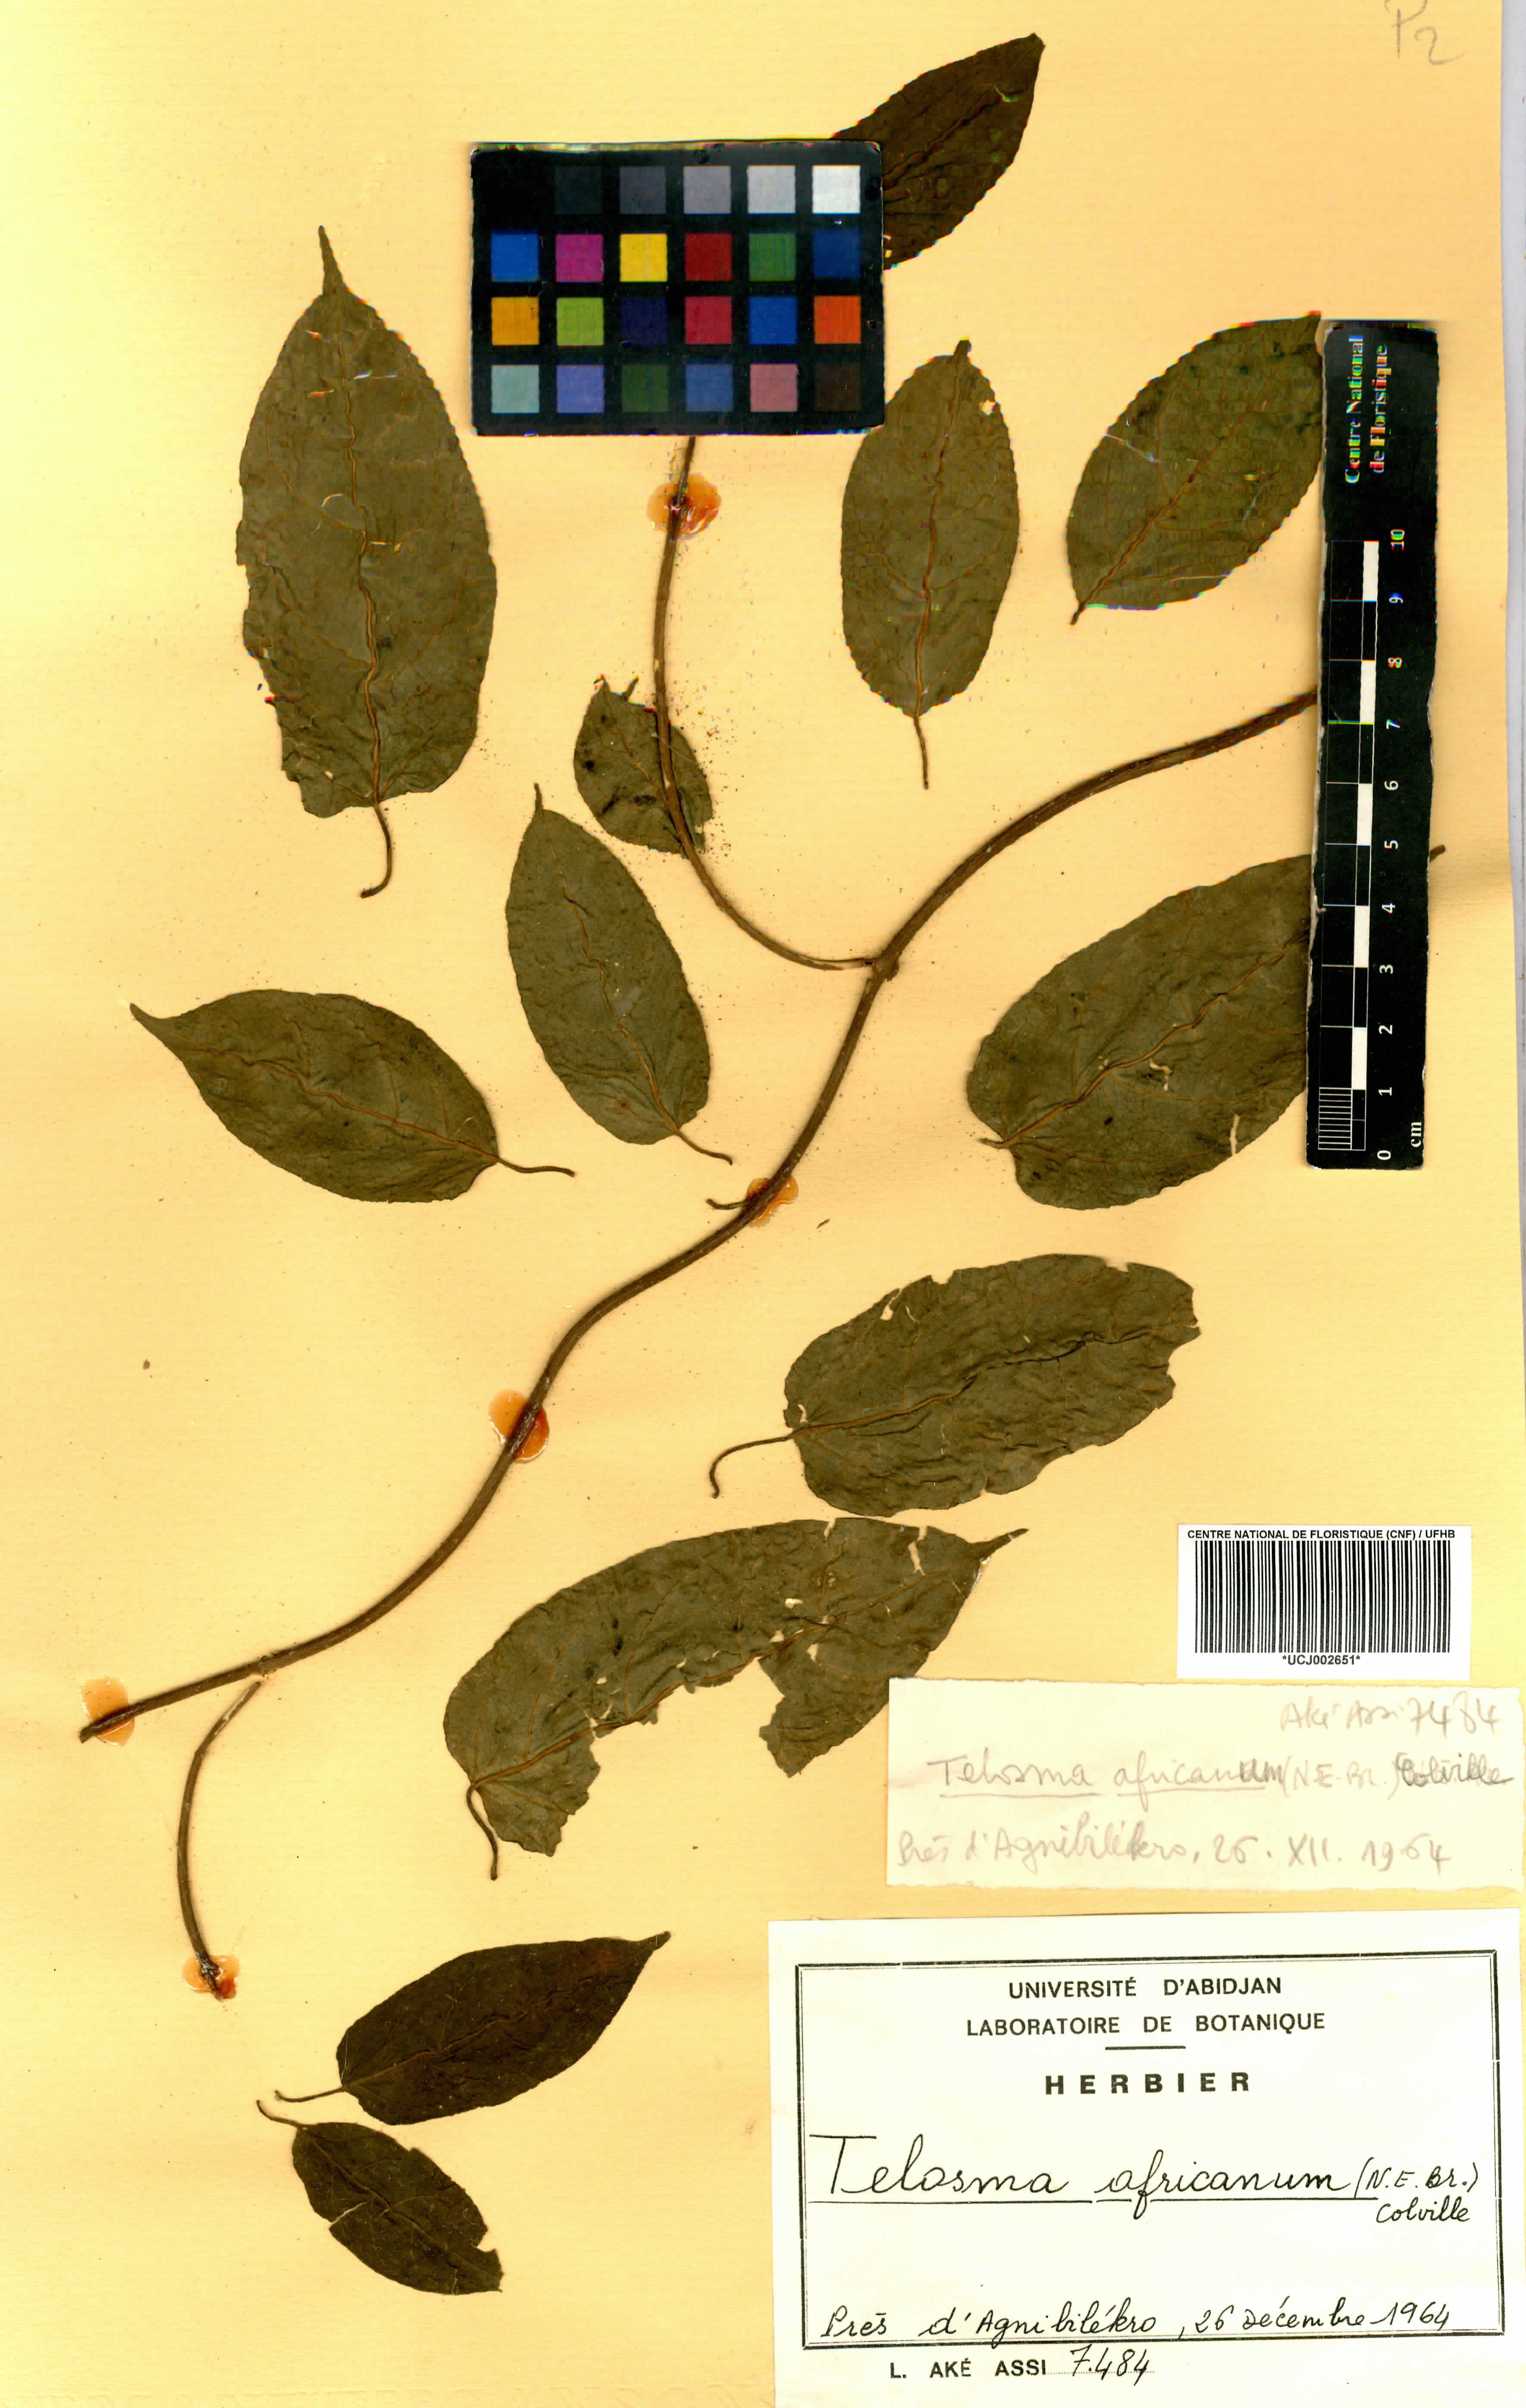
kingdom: Plantae
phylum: Tracheophyta
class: Magnoliopsida
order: Gentianales
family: Apocynaceae
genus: Telosma
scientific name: Telosma africana
